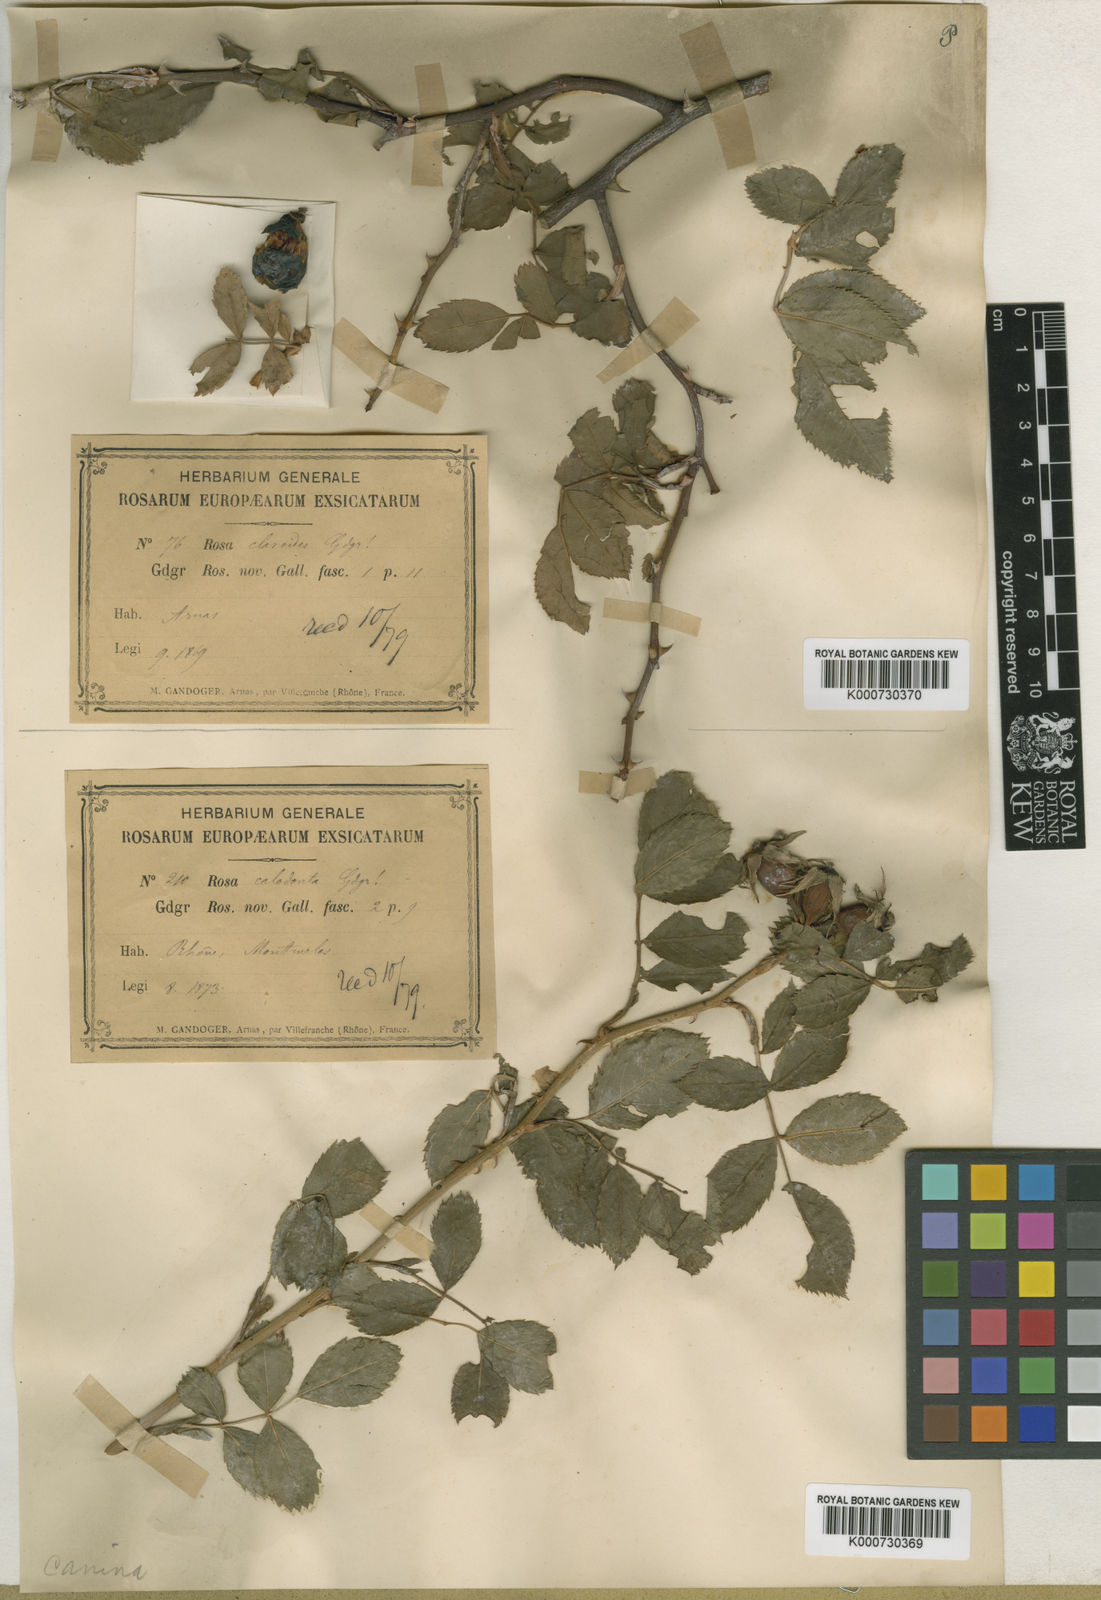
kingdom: Plantae
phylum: Tracheophyta
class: Magnoliopsida
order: Rosales
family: Rosaceae
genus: Rosa
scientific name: Rosa canina
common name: Dog rose
